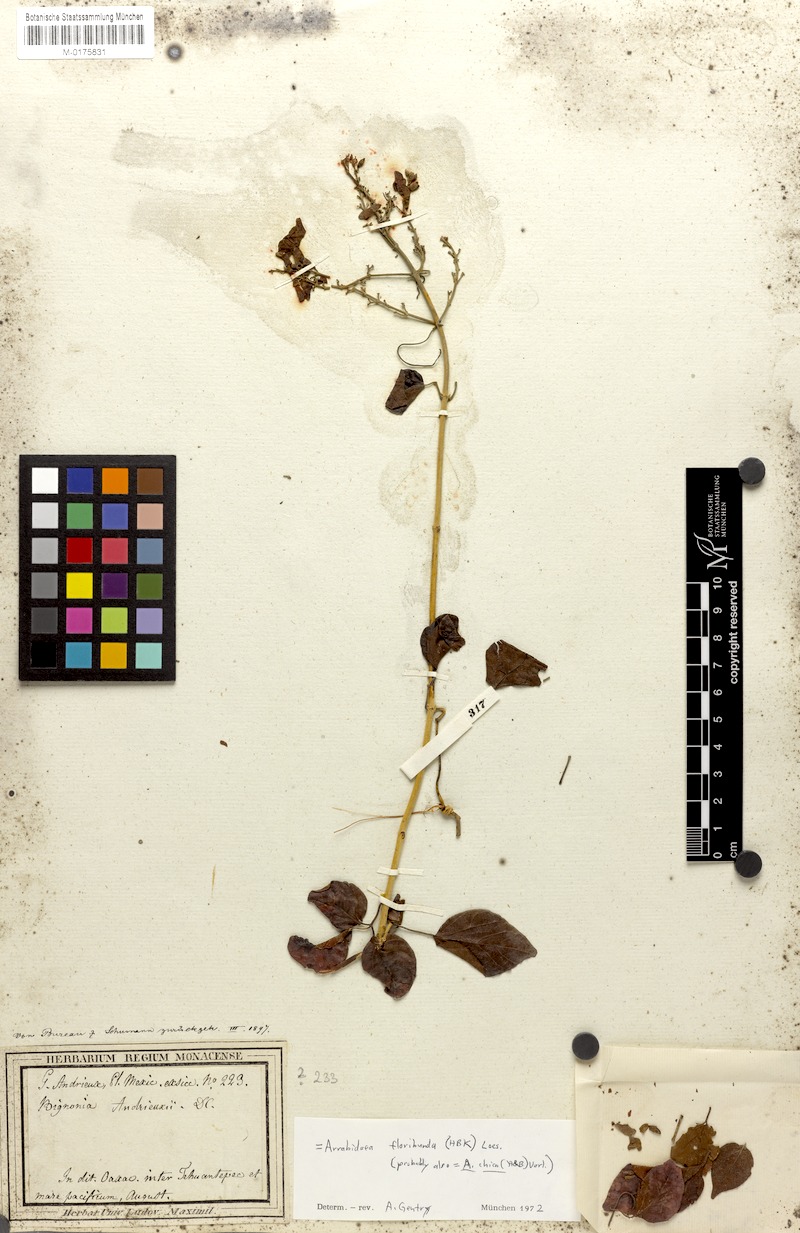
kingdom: Plantae
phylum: Tracheophyta
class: Magnoliopsida
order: Lamiales
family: Bignoniaceae
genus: Fridericia
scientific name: Fridericia floribunda
